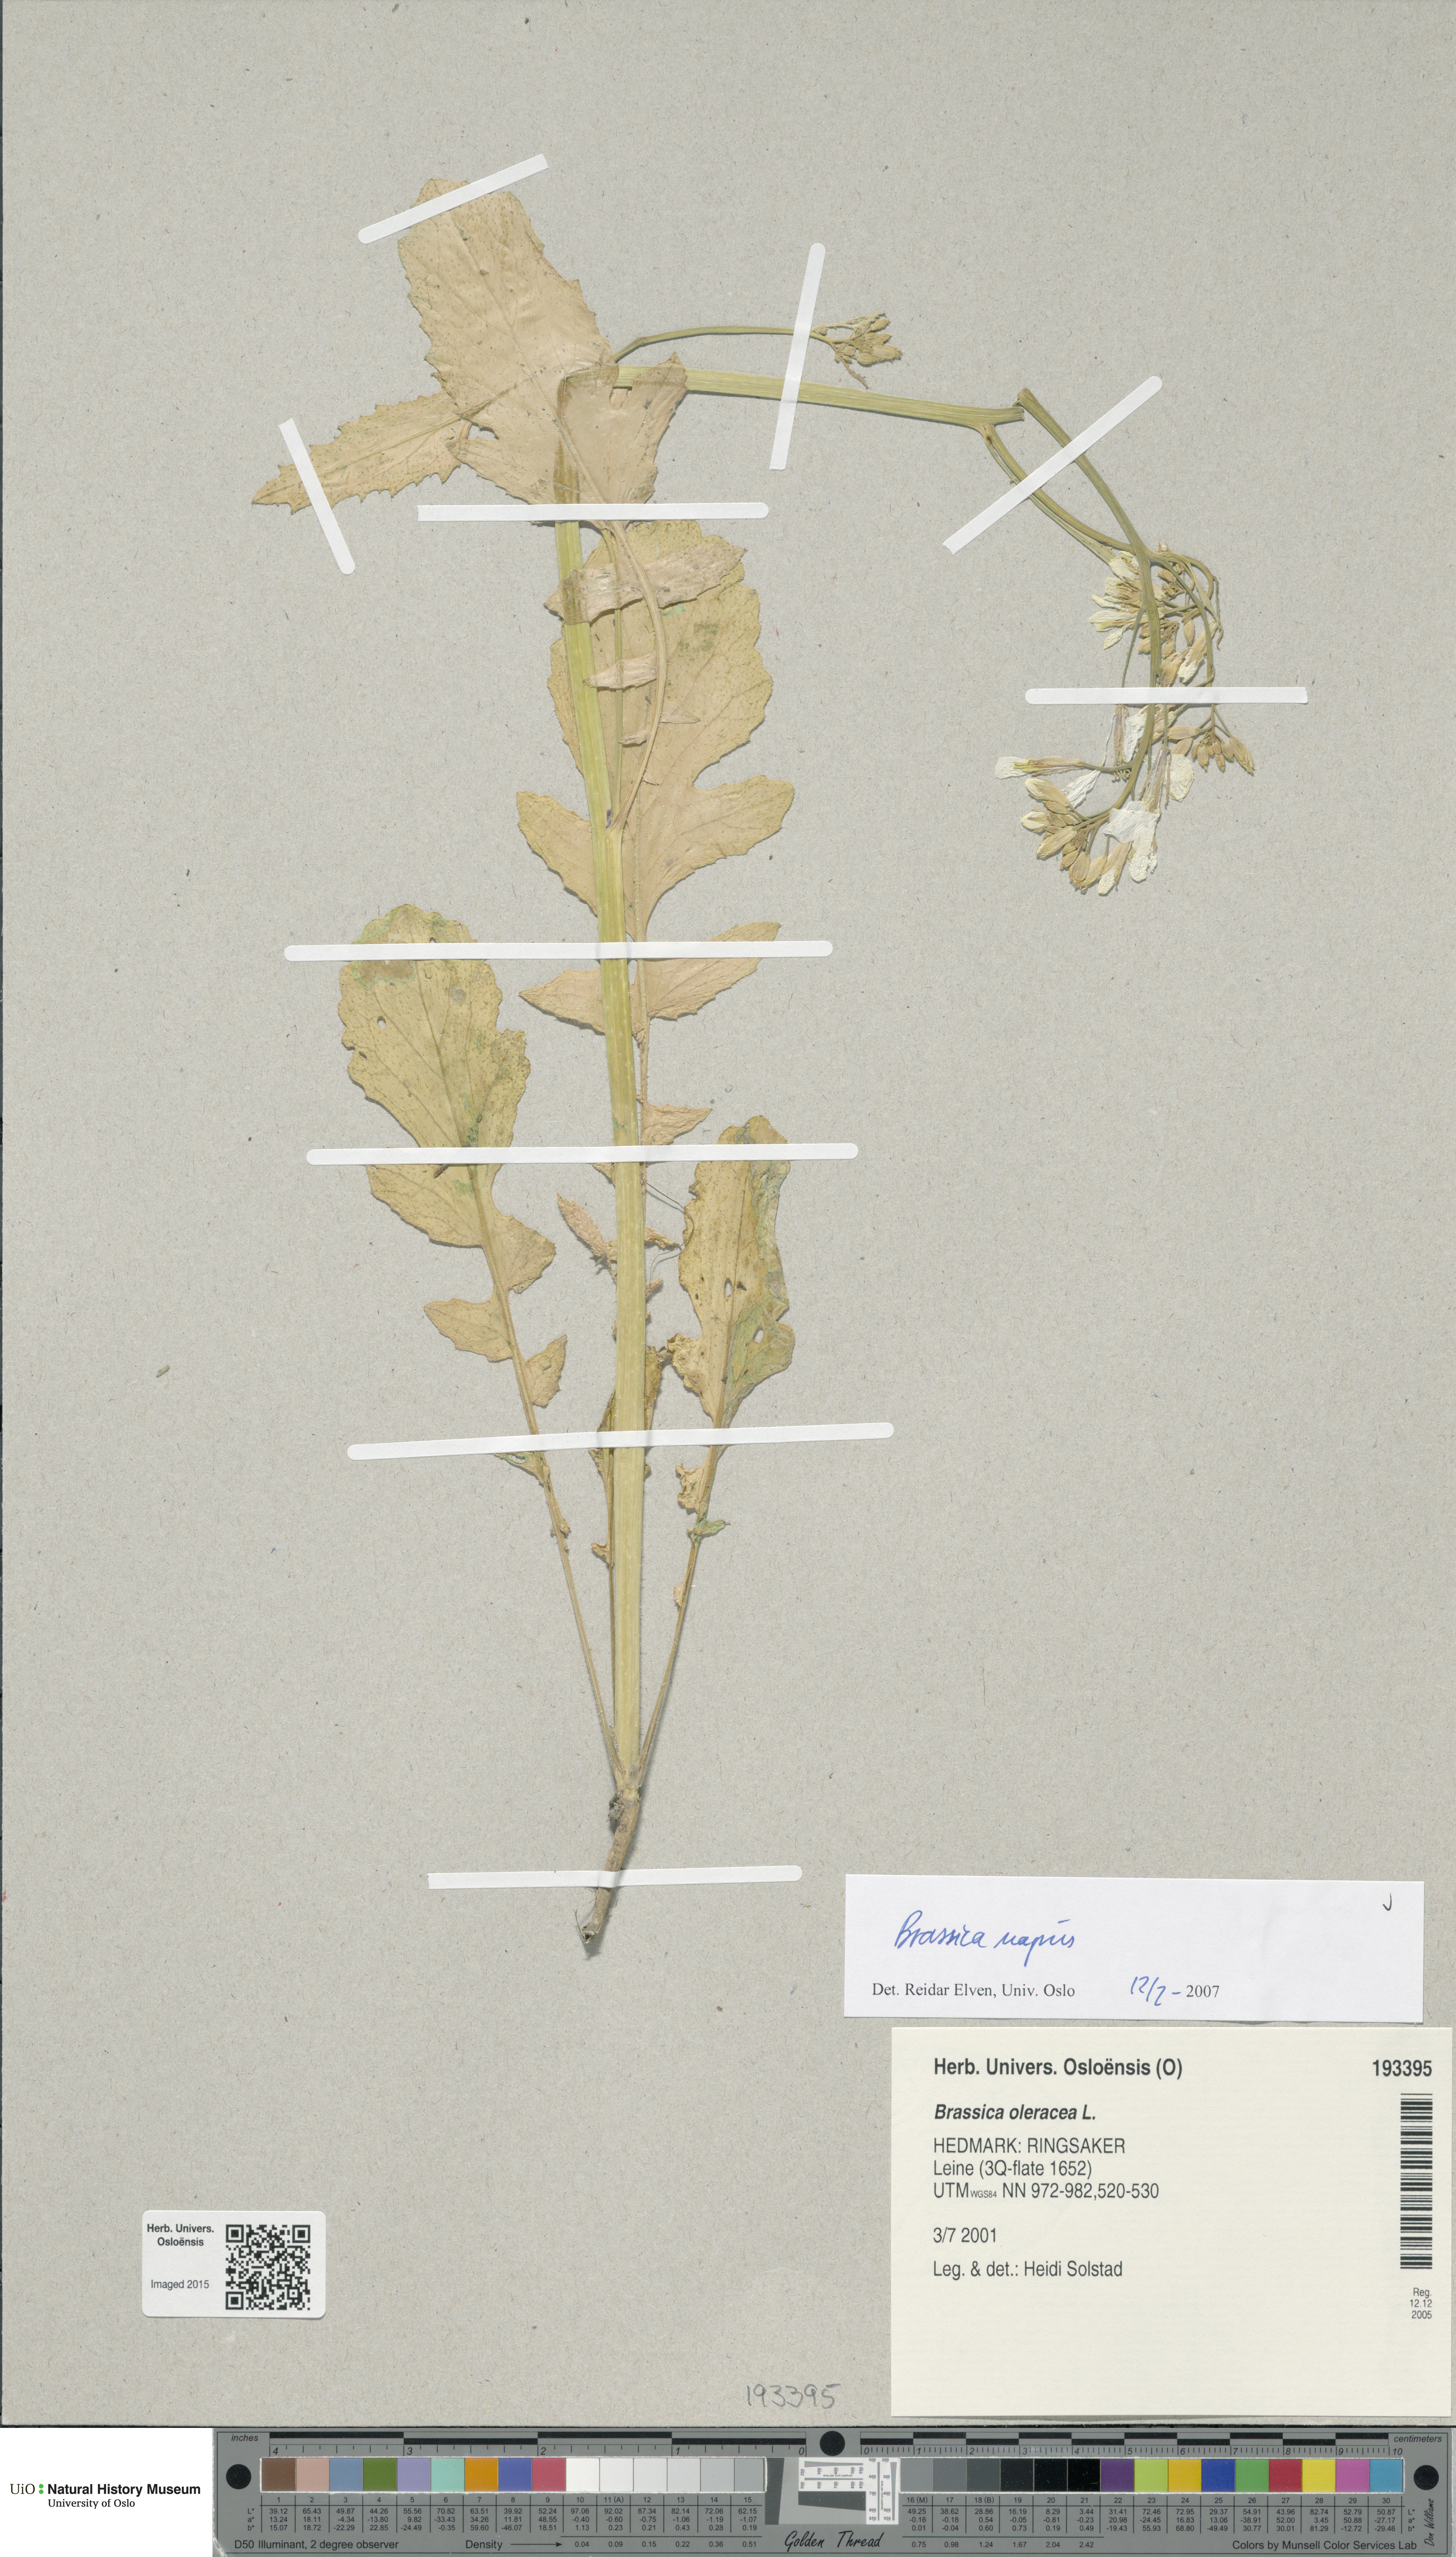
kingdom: Plantae
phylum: Tracheophyta
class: Magnoliopsida
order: Brassicales
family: Brassicaceae
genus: Brassica
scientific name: Brassica napus
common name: Rape
